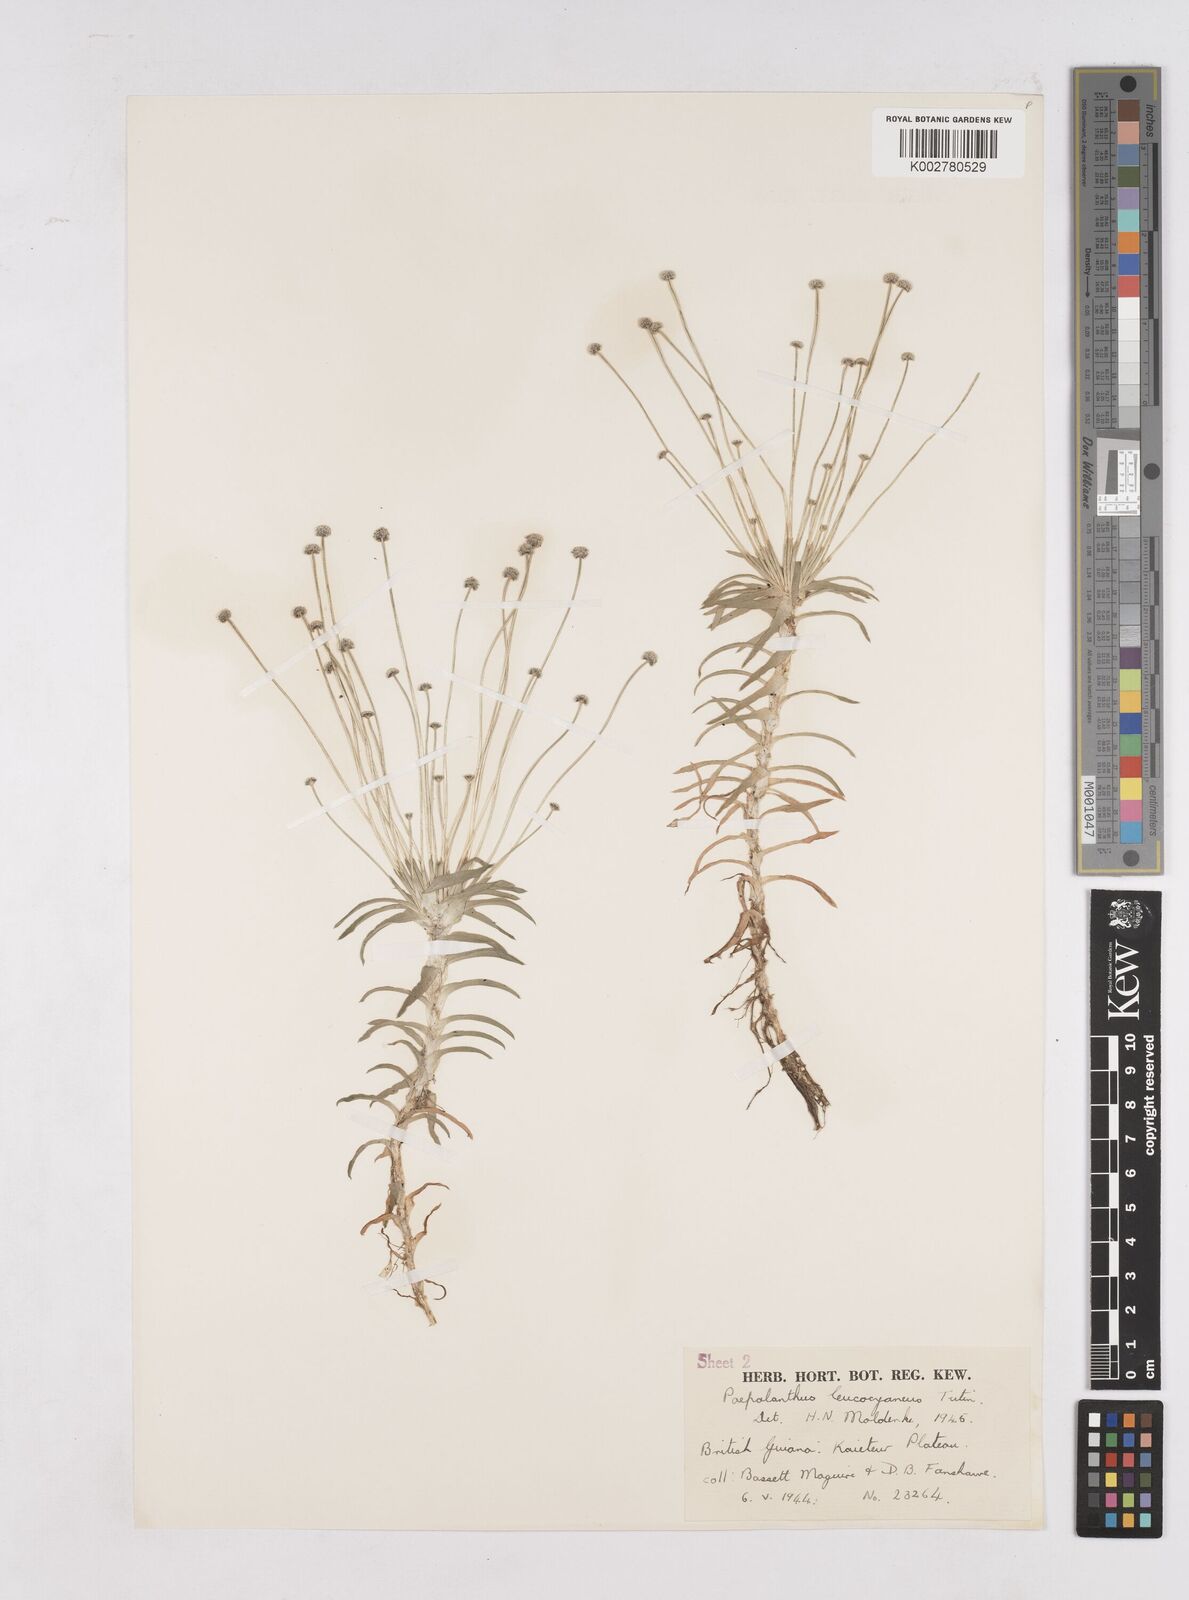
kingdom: Plantae
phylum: Tracheophyta
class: Liliopsida
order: Poales
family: Eriocaulaceae
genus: Paepalanthus
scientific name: Paepalanthus oyapockensis
